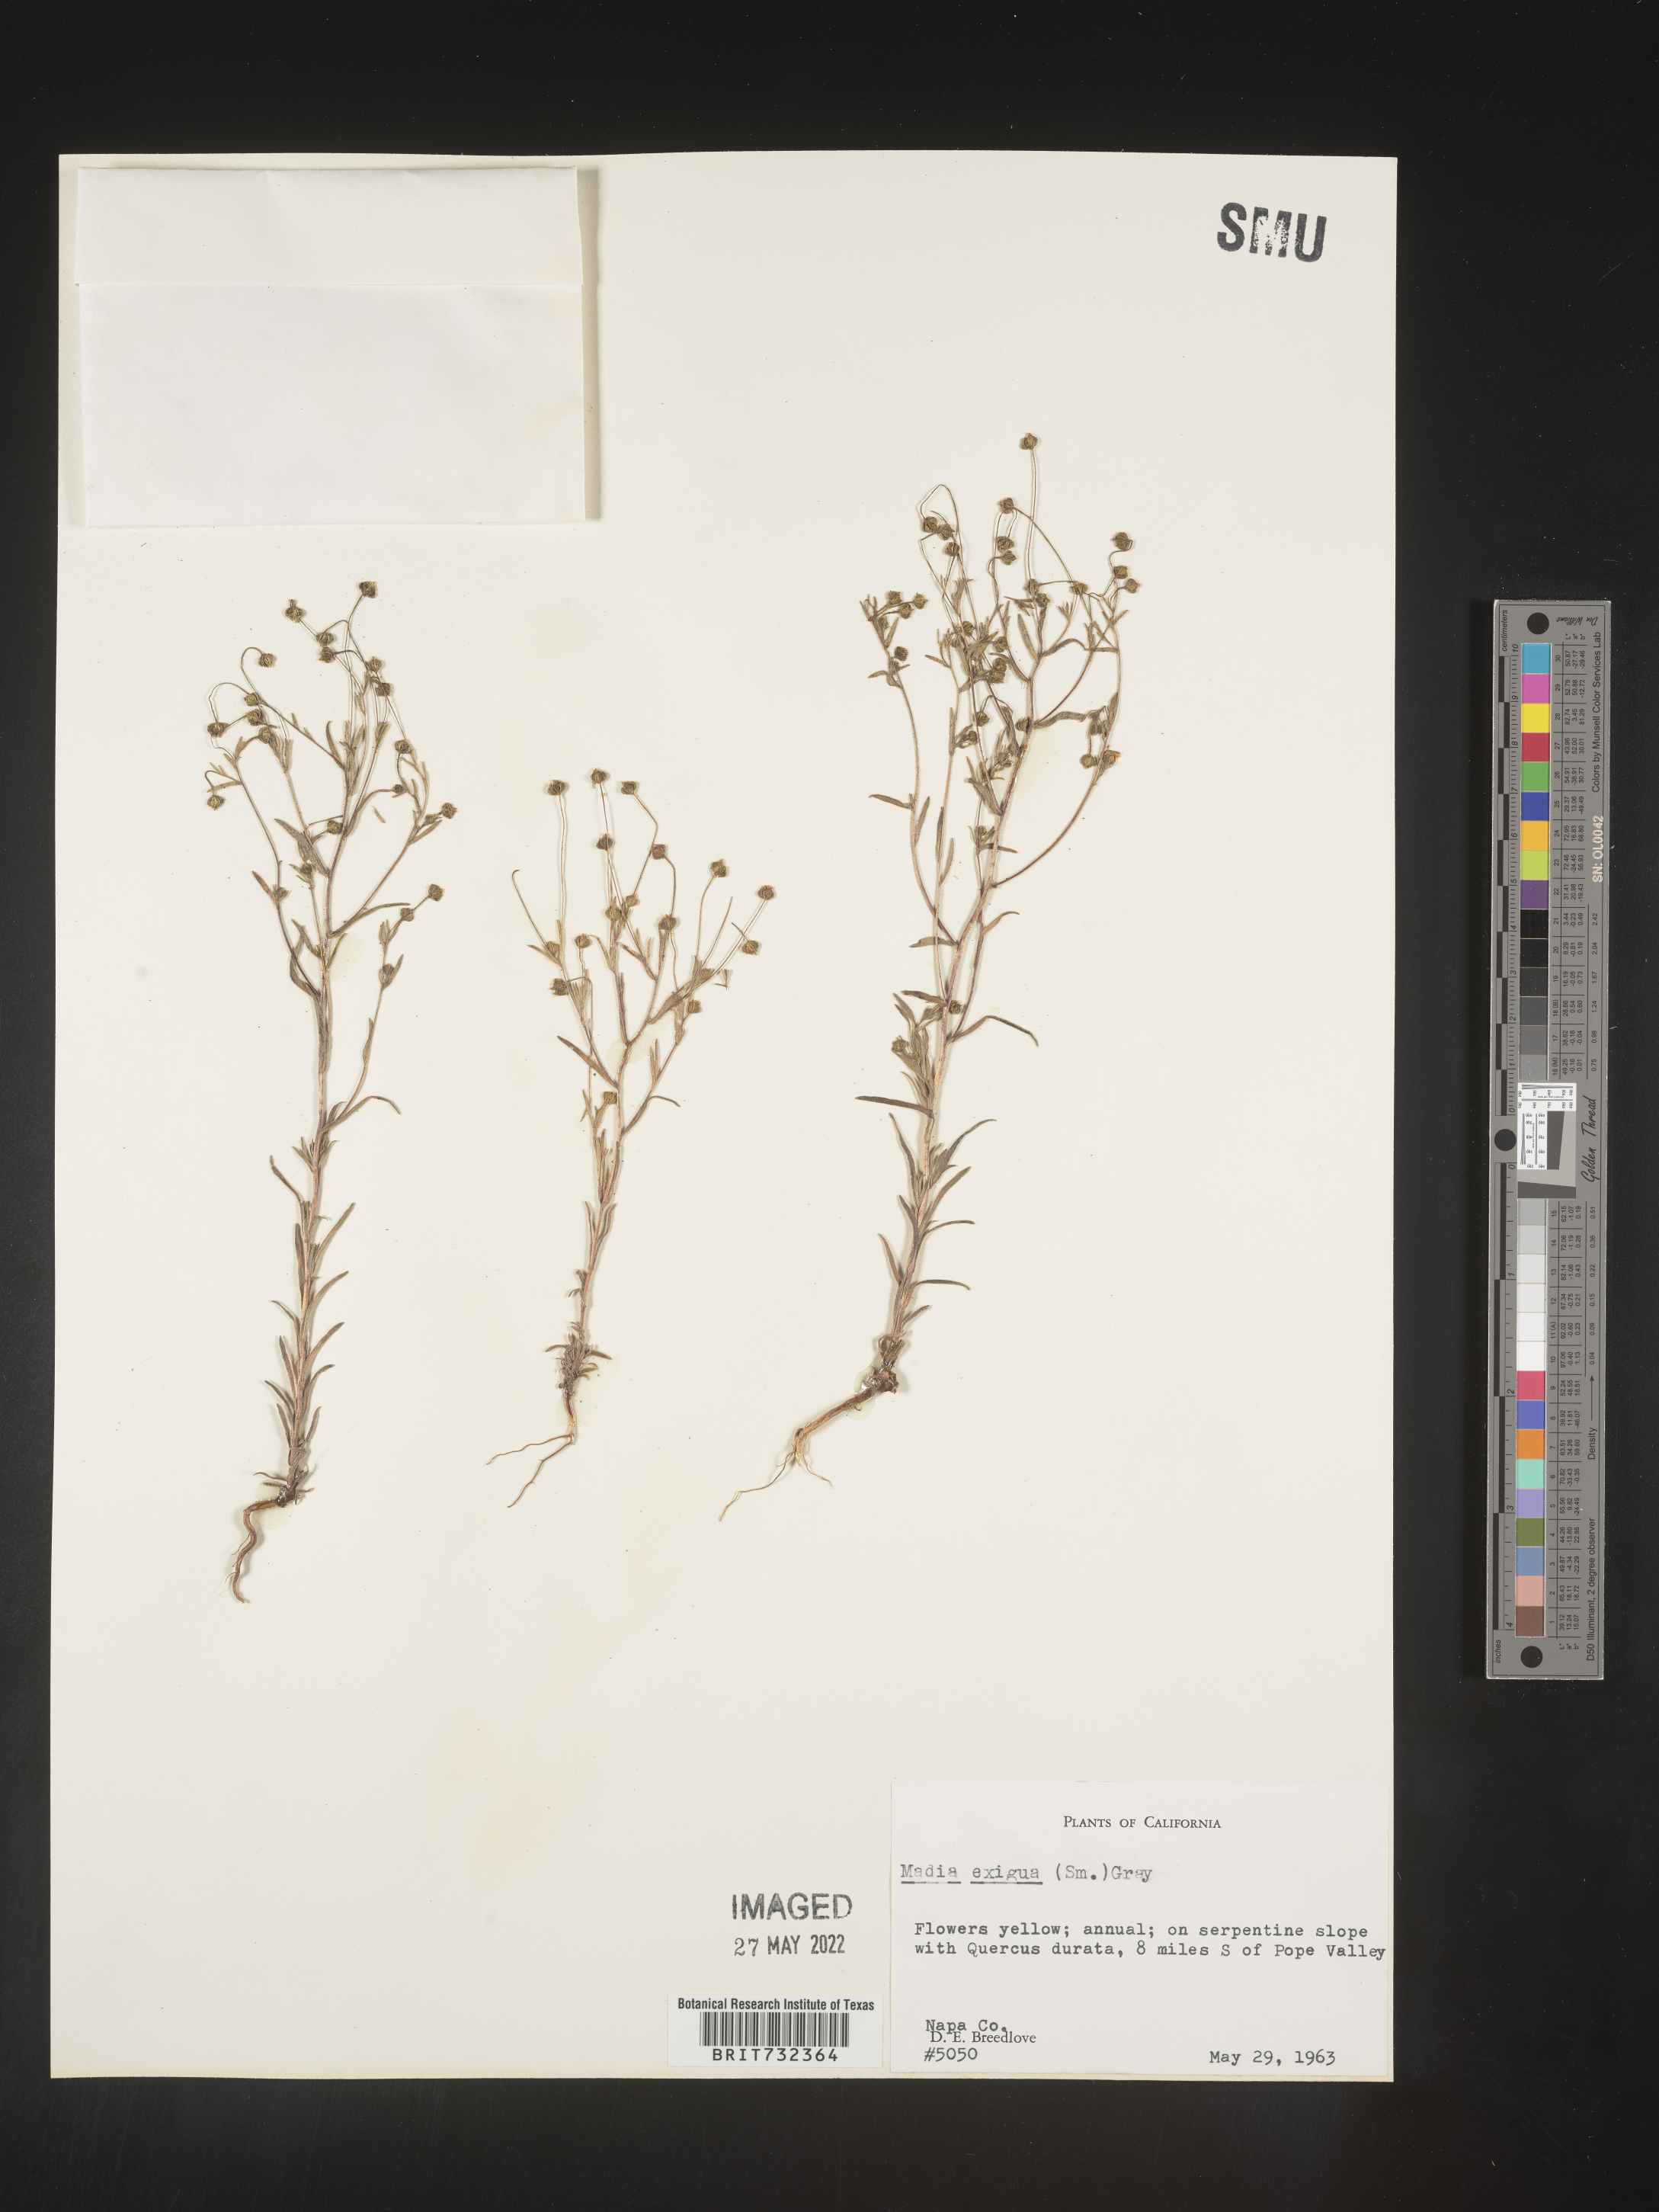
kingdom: Plantae
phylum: Tracheophyta
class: Magnoliopsida
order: Asterales
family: Asteraceae
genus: Madia
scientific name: Madia
